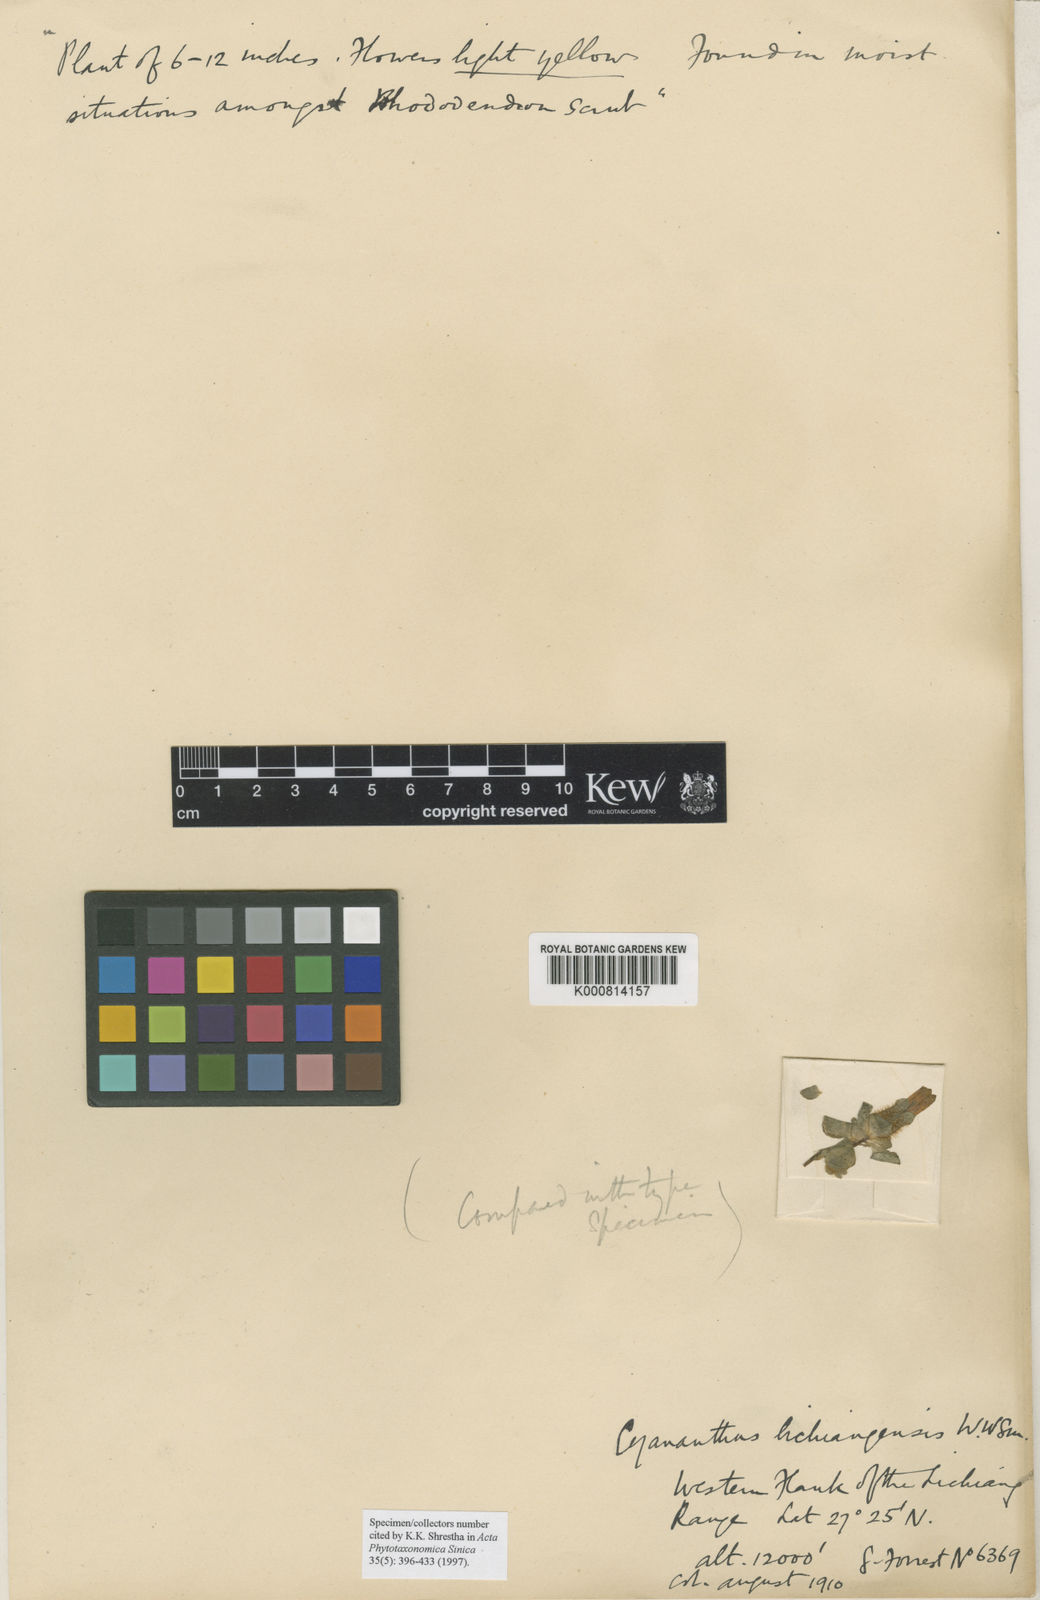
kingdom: Plantae
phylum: Tracheophyta
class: Magnoliopsida
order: Asterales
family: Campanulaceae
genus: Cyananthus
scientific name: Cyananthus lichiangensis
